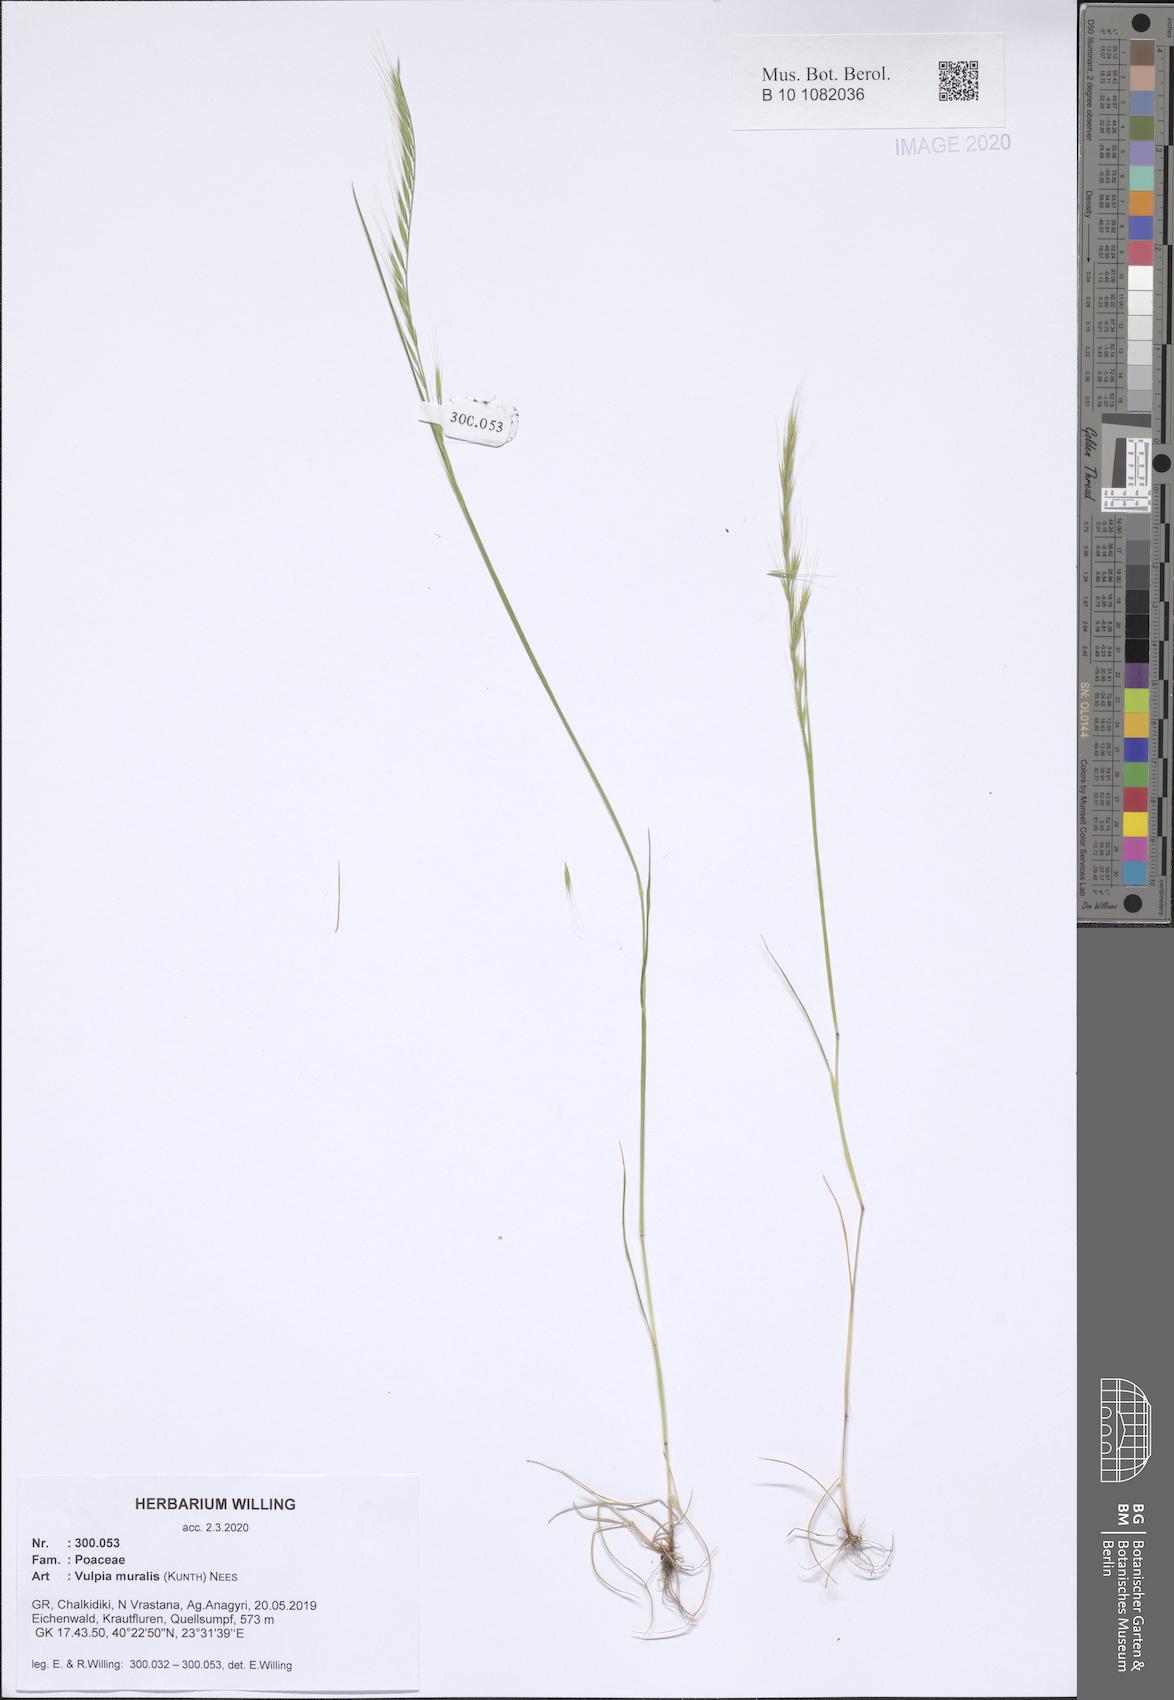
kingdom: Plantae
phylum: Tracheophyta
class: Liliopsida
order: Poales
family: Poaceae
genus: Festuca
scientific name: Festuca muralis
